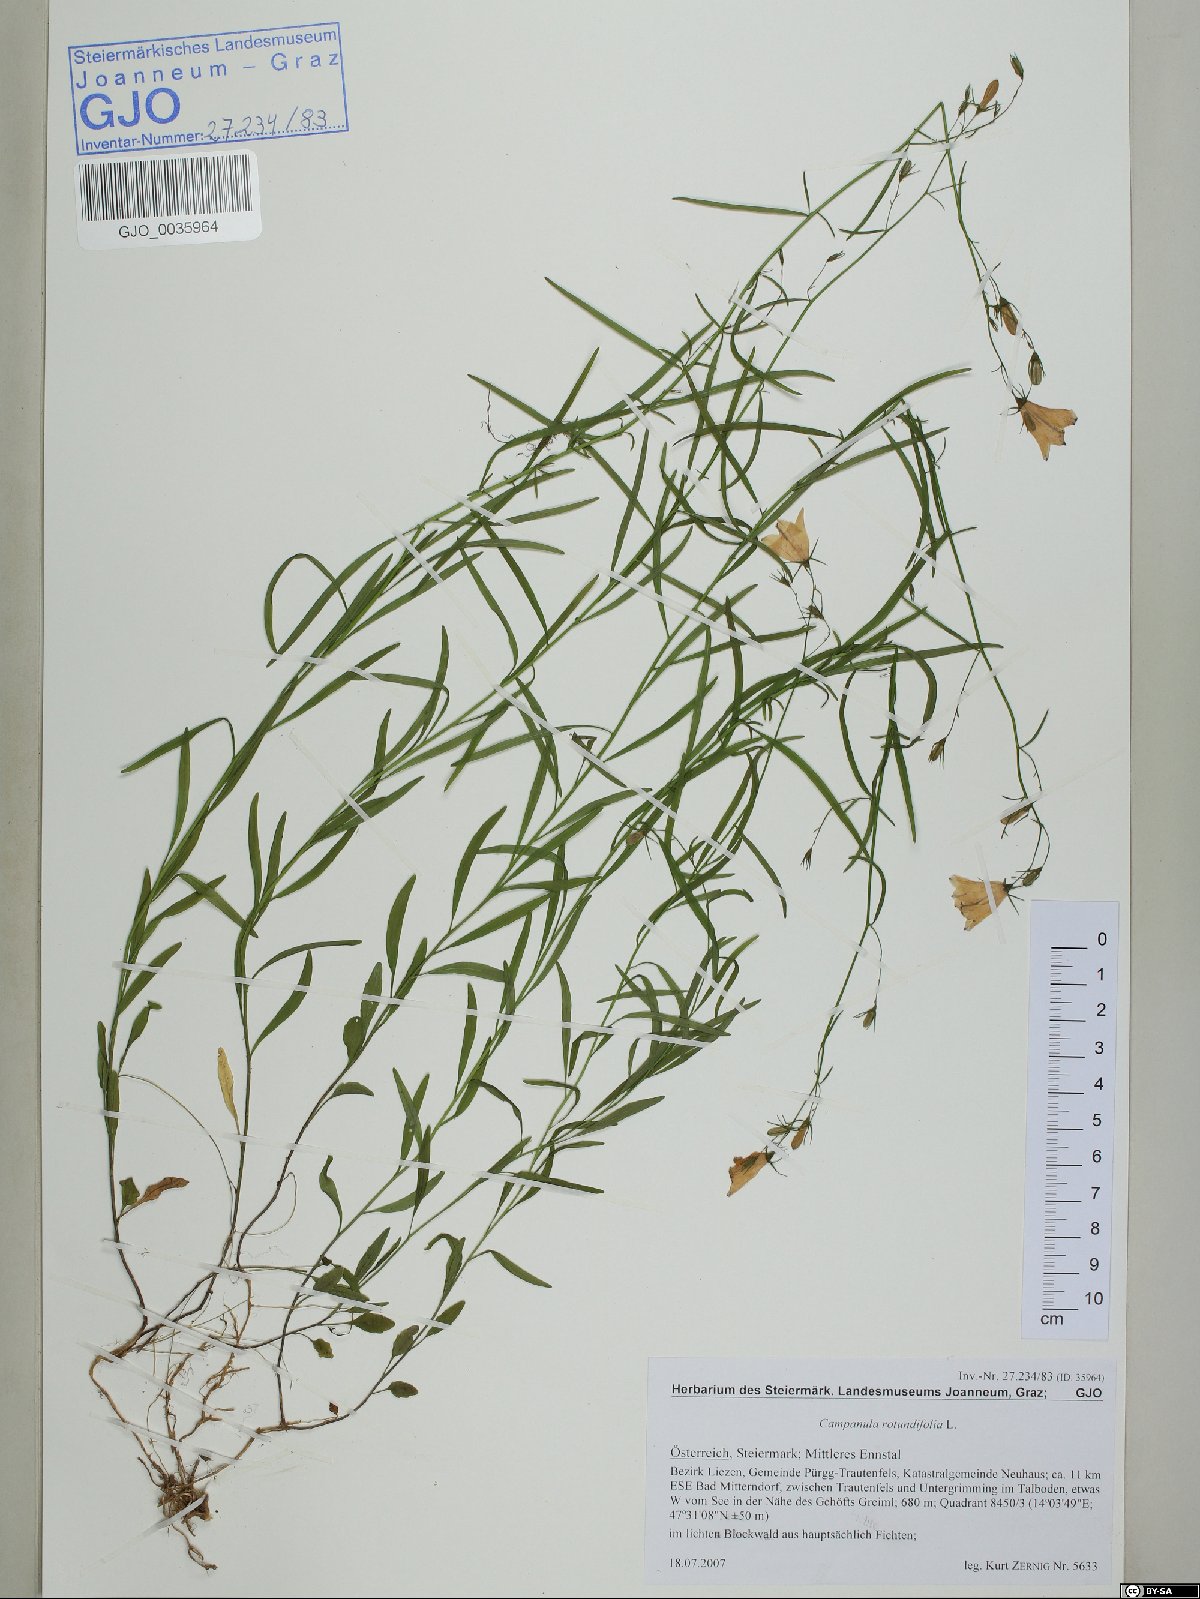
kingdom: Plantae
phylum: Tracheophyta
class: Magnoliopsida
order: Asterales
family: Campanulaceae
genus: Campanula
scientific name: Campanula rotundifolia
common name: Harebell
